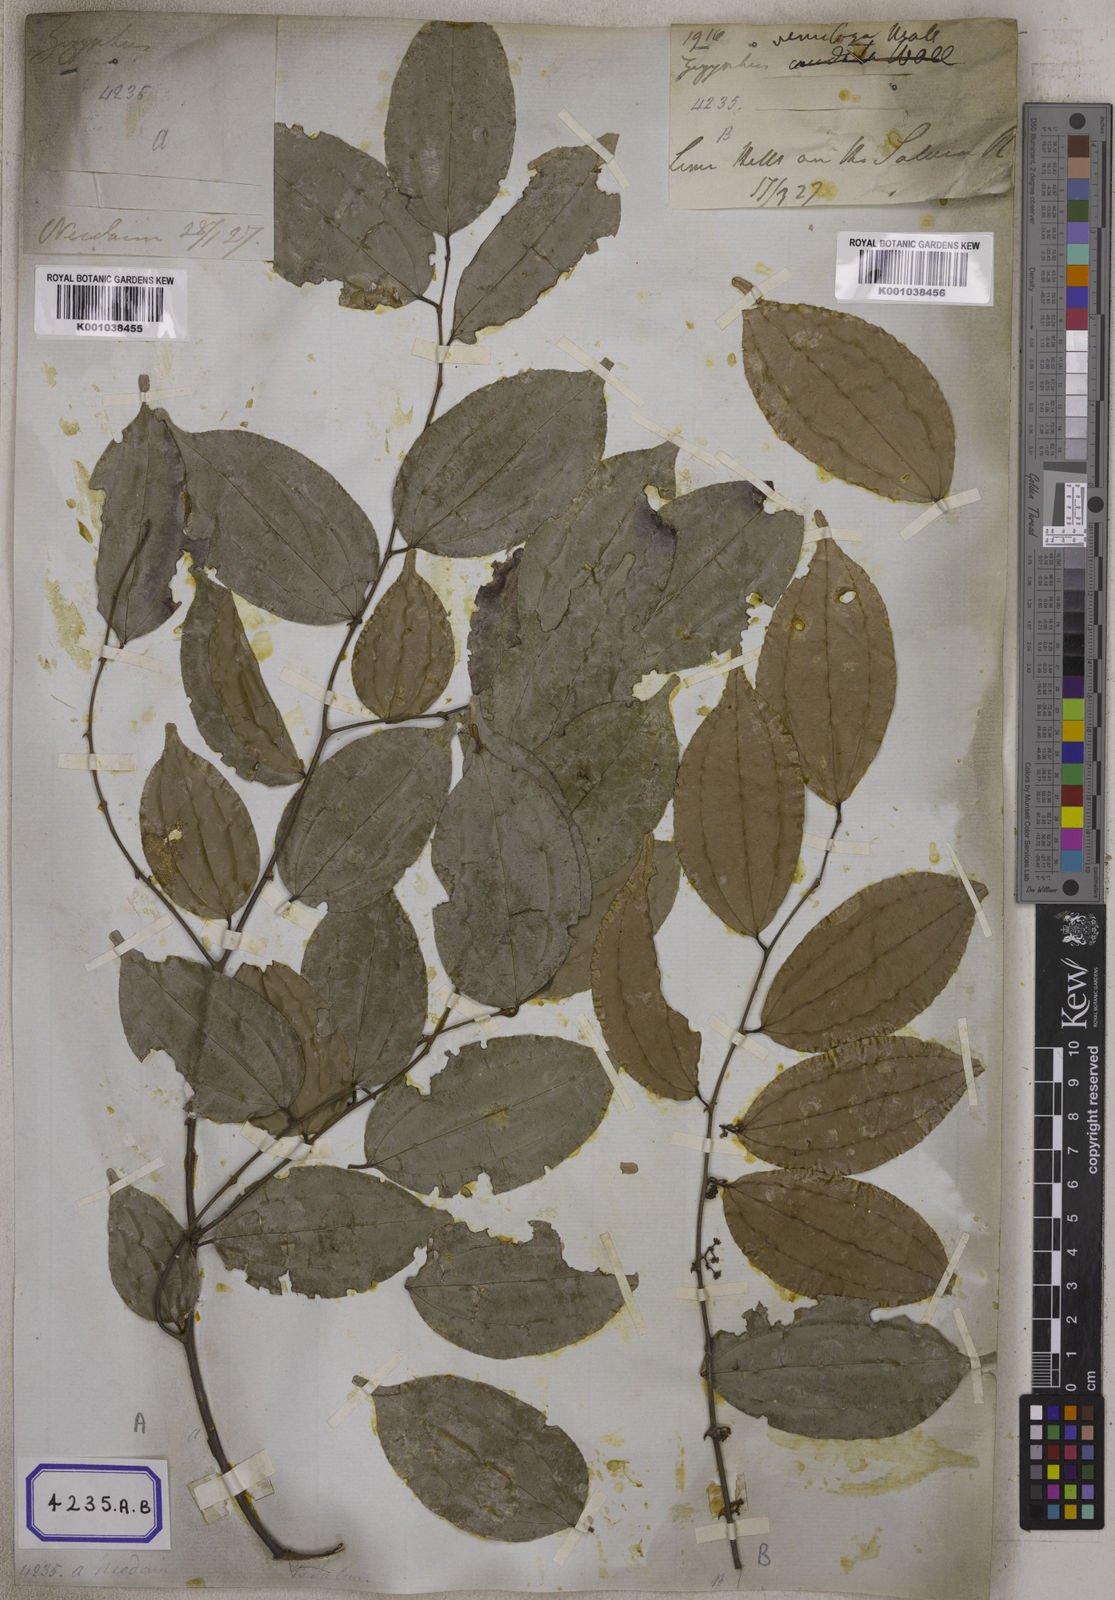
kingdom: Plantae
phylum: Tracheophyta
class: Magnoliopsida
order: Rosales
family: Rhamnaceae
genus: Ziziphus
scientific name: Ziziphus funiculosa
